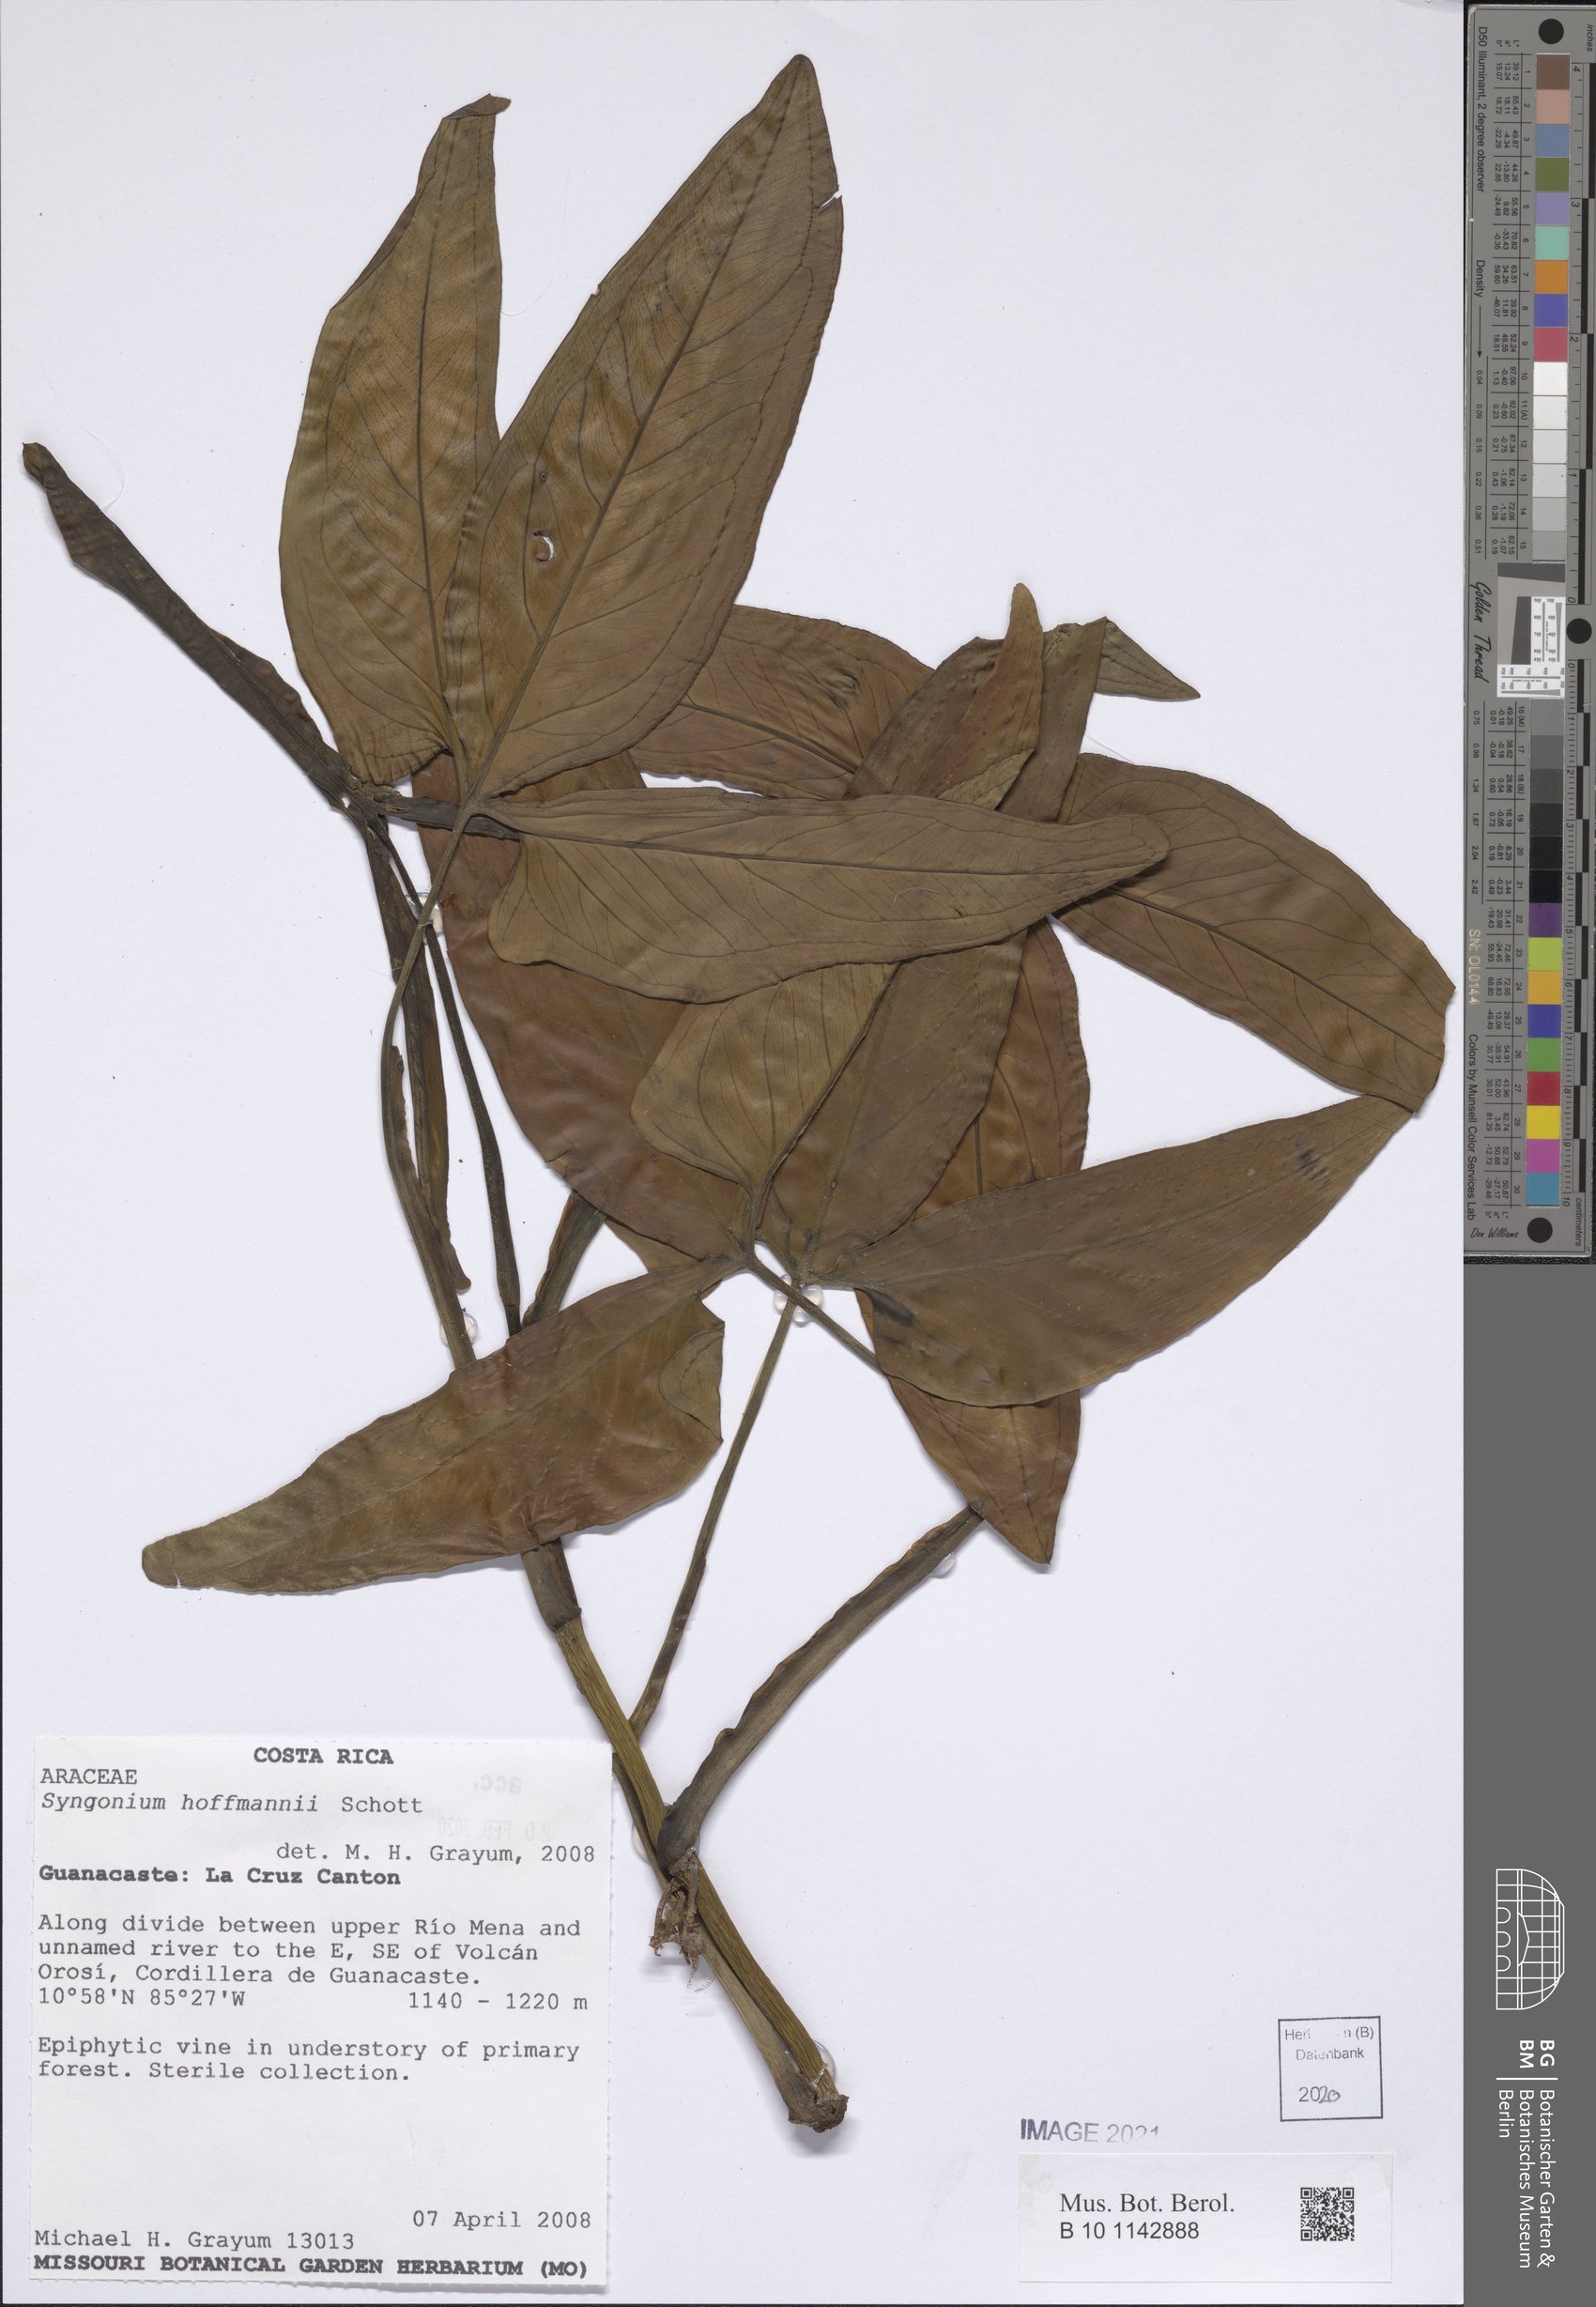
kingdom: Plantae
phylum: Tracheophyta
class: Liliopsida
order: Alismatales
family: Araceae
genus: Syngonium
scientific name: Syngonium hoffmannii
